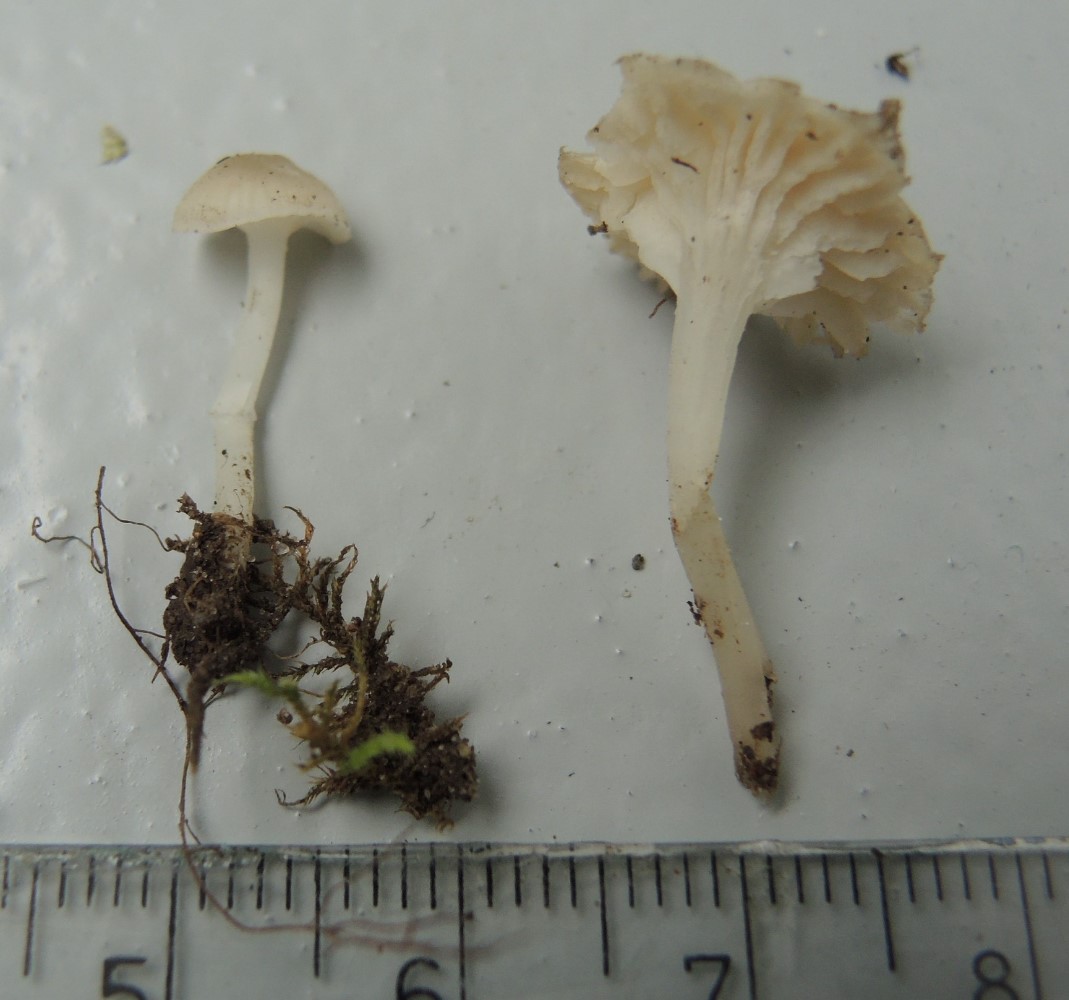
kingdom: Fungi
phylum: Basidiomycota
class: Agaricomycetes
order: Agaricales
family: Mycenaceae
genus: Hemimycena
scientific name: Hemimycena mairei
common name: voks-huesvamp
